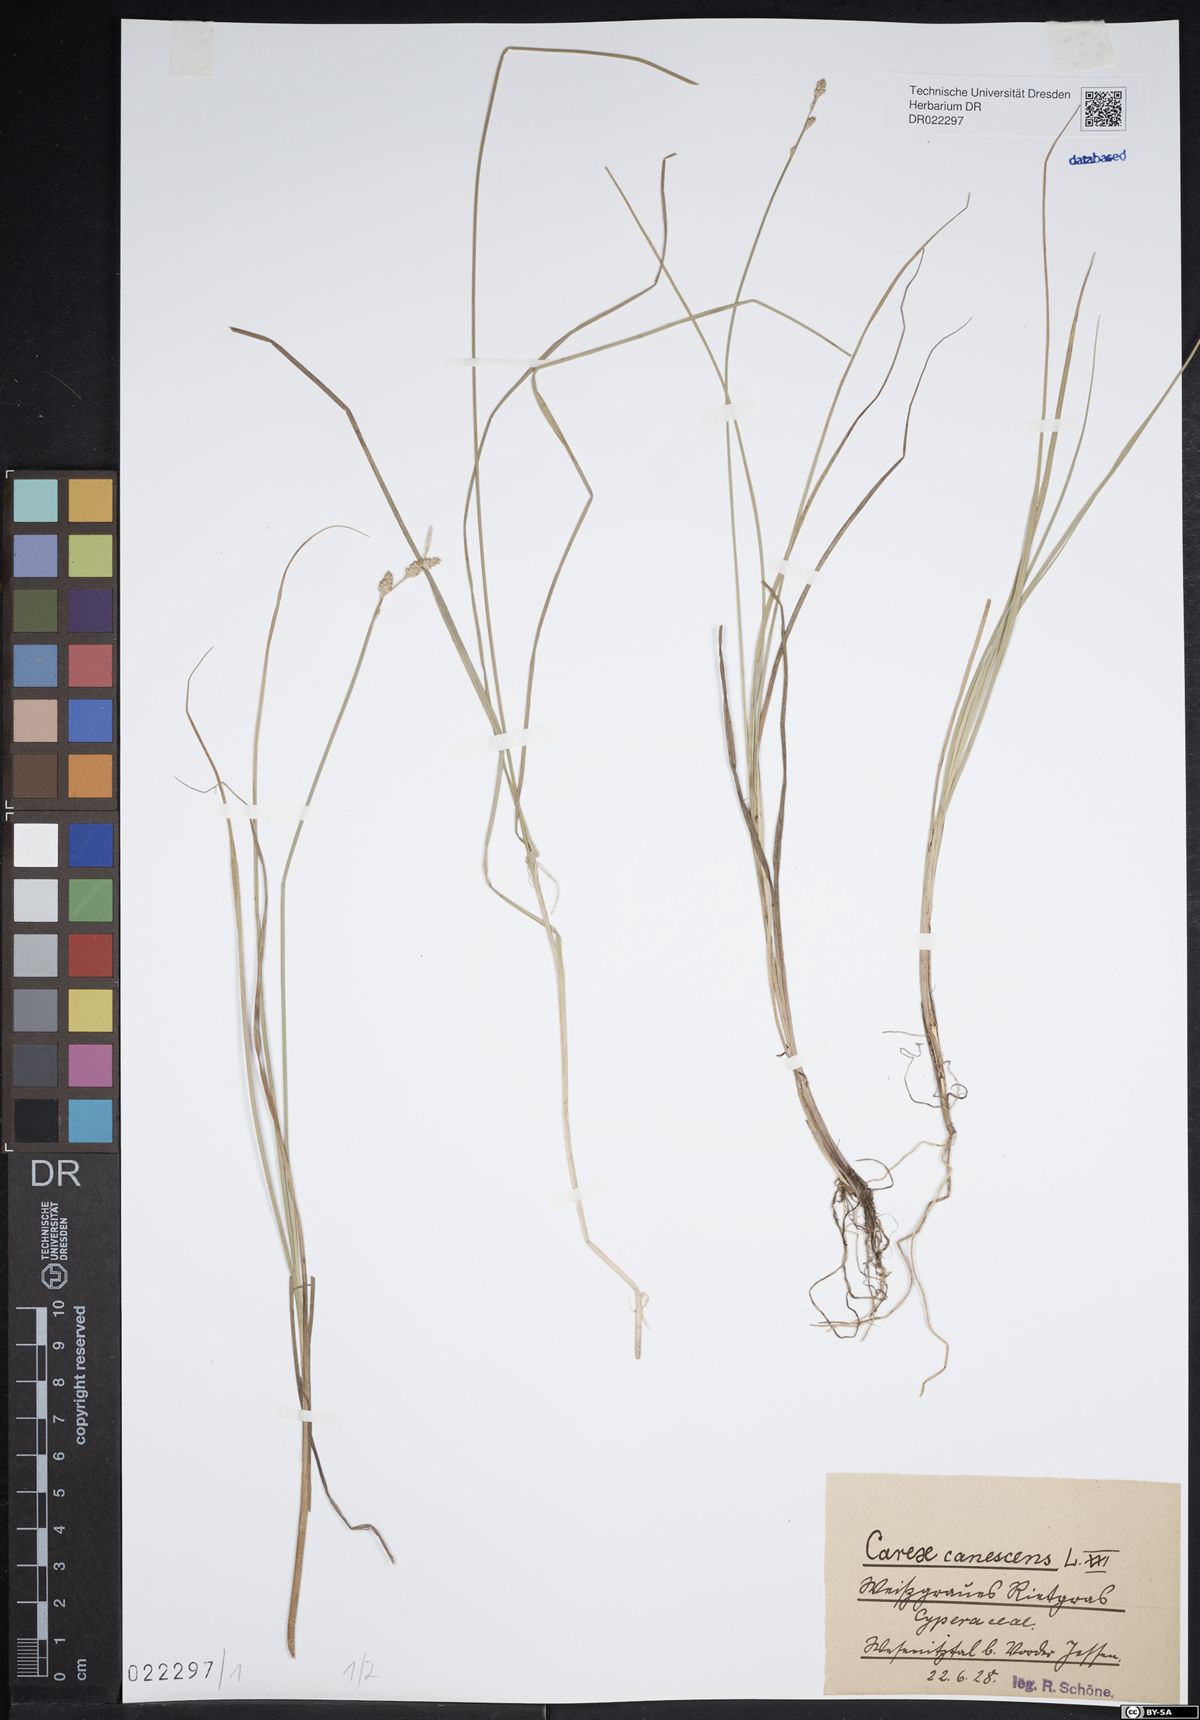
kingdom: Plantae
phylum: Tracheophyta
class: Liliopsida
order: Poales
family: Cyperaceae
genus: Carex
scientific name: Carex canescens
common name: White sedge
